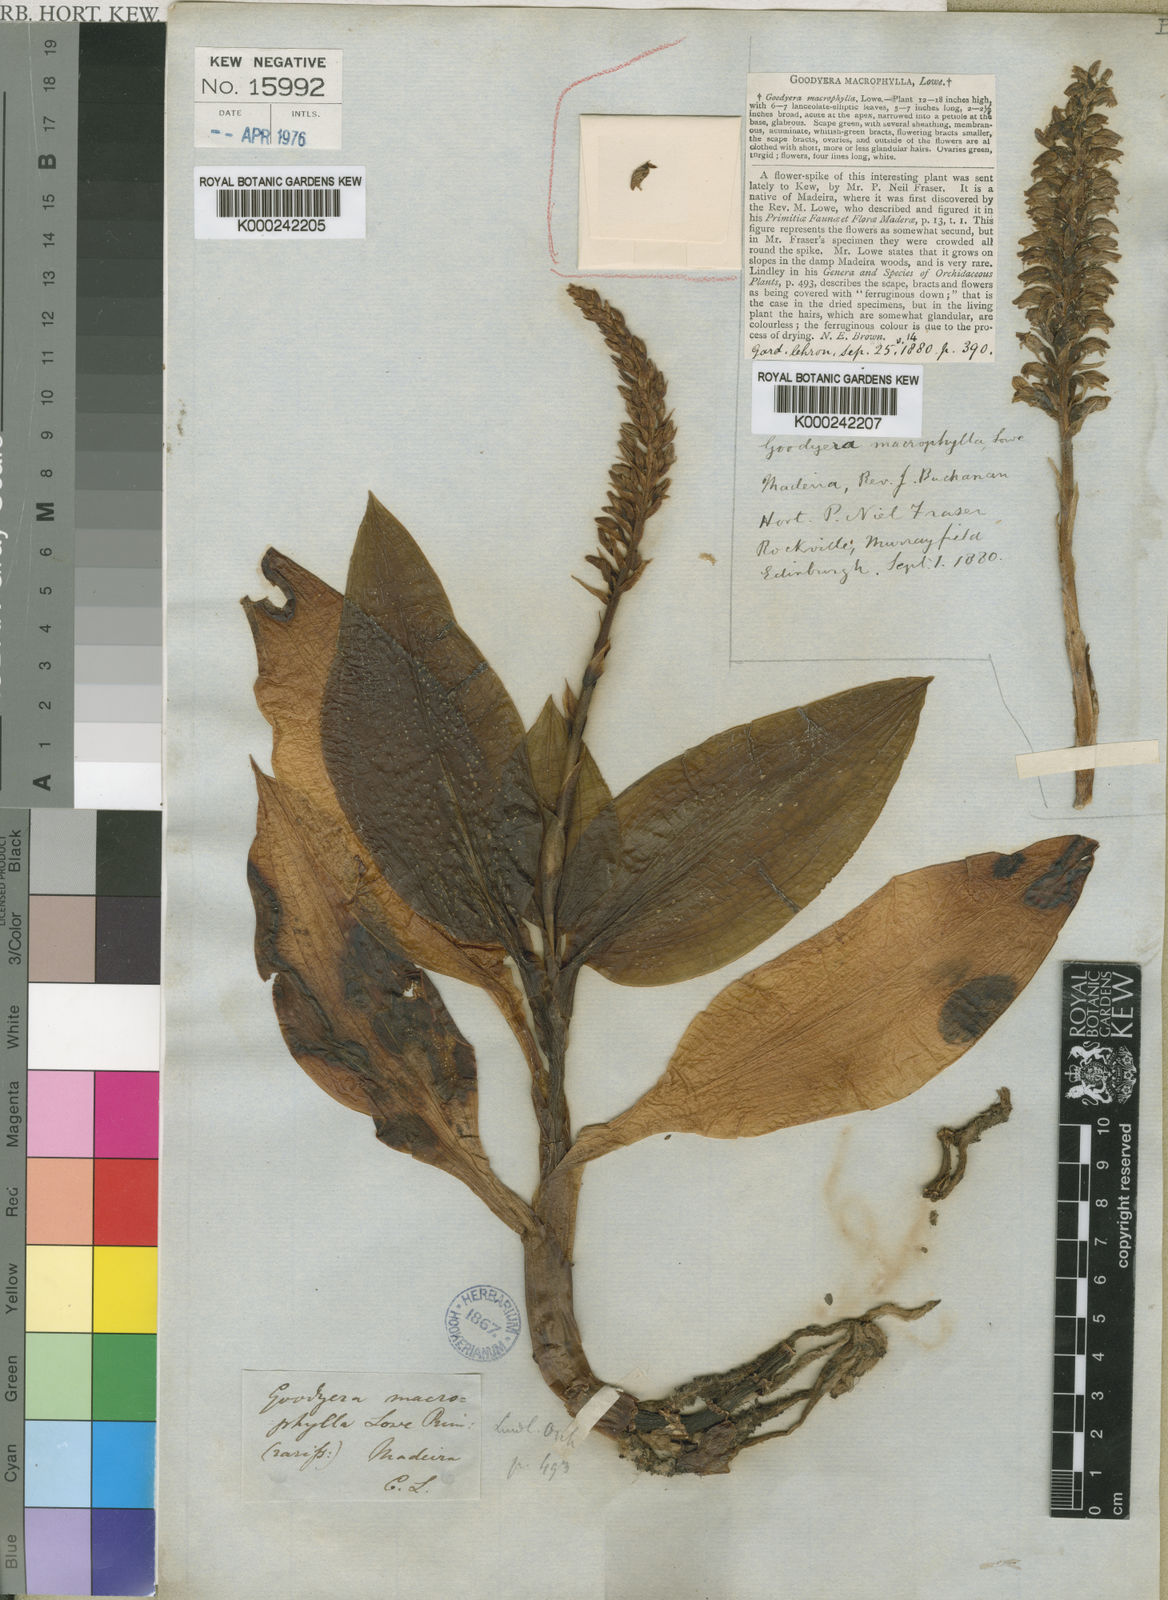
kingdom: Plantae
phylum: Tracheophyta
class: Liliopsida
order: Asparagales
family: Orchidaceae
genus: Goodyera
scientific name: Goodyera macrophylla
